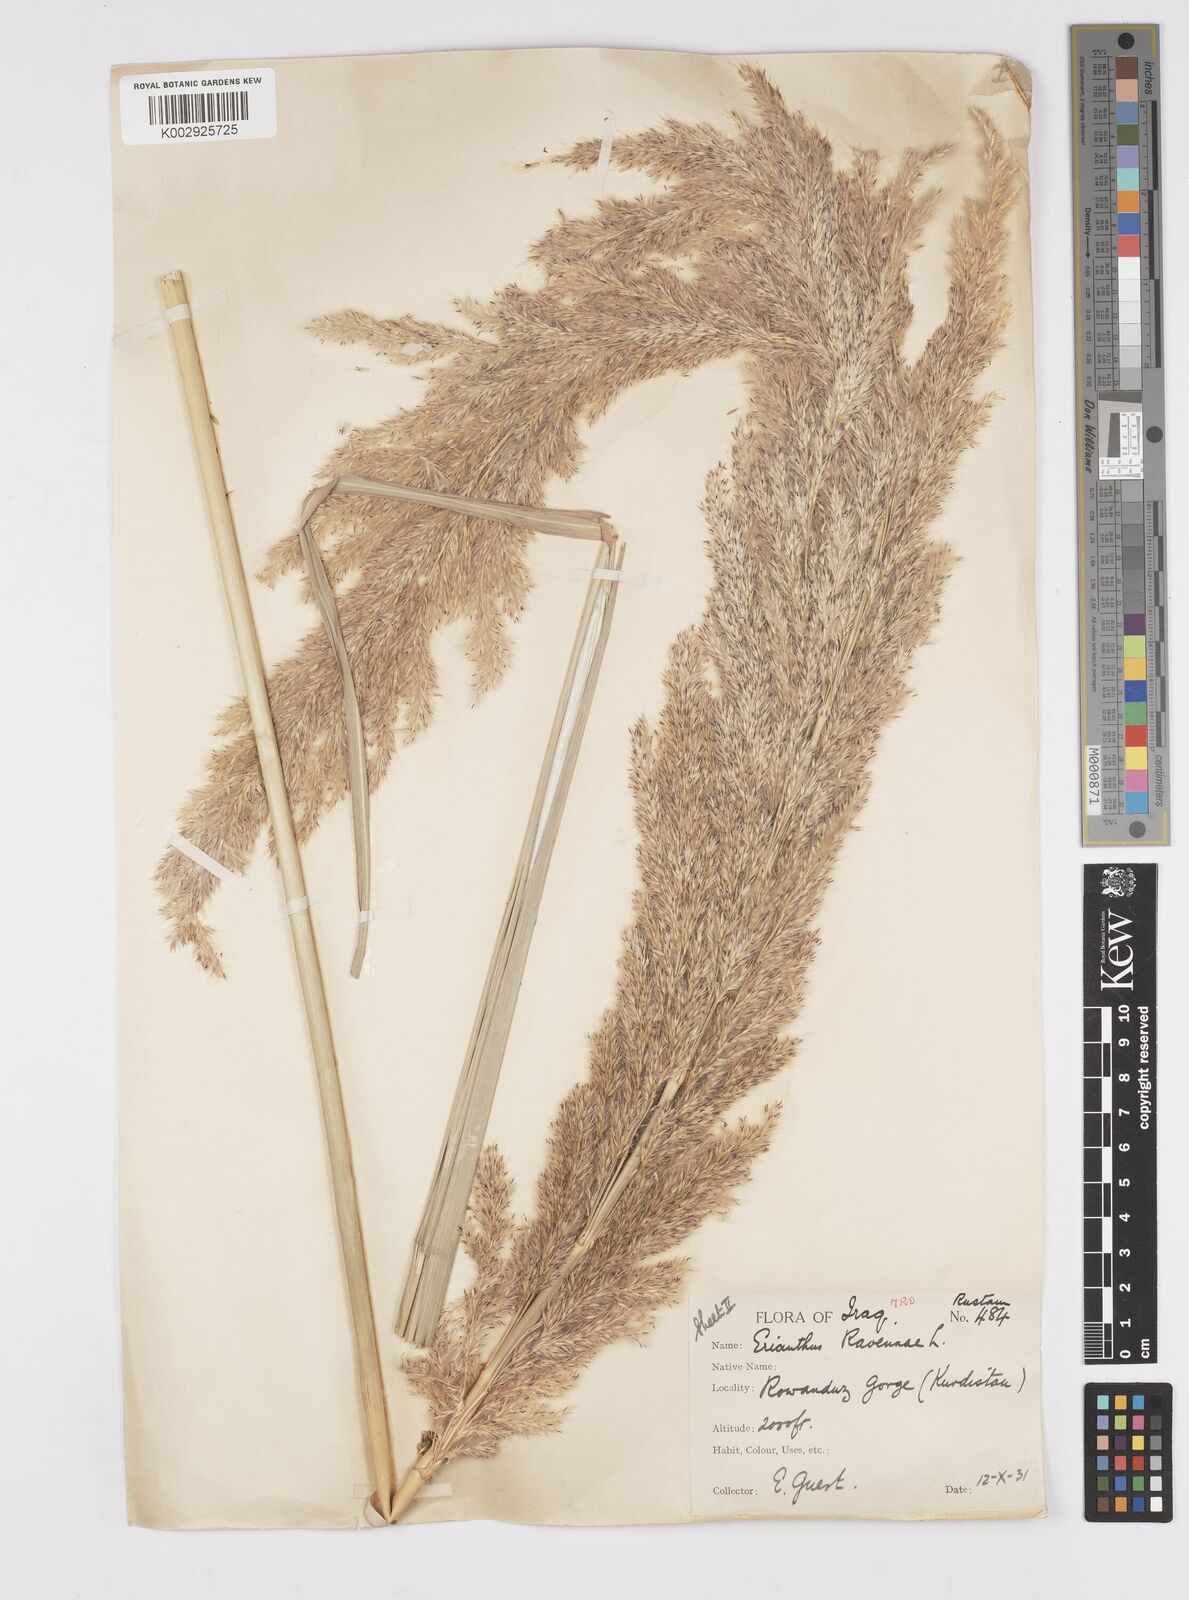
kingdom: Plantae
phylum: Tracheophyta
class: Liliopsida
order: Poales
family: Poaceae
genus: Tripidium
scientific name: Tripidium ravennae
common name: Ravenna grass
